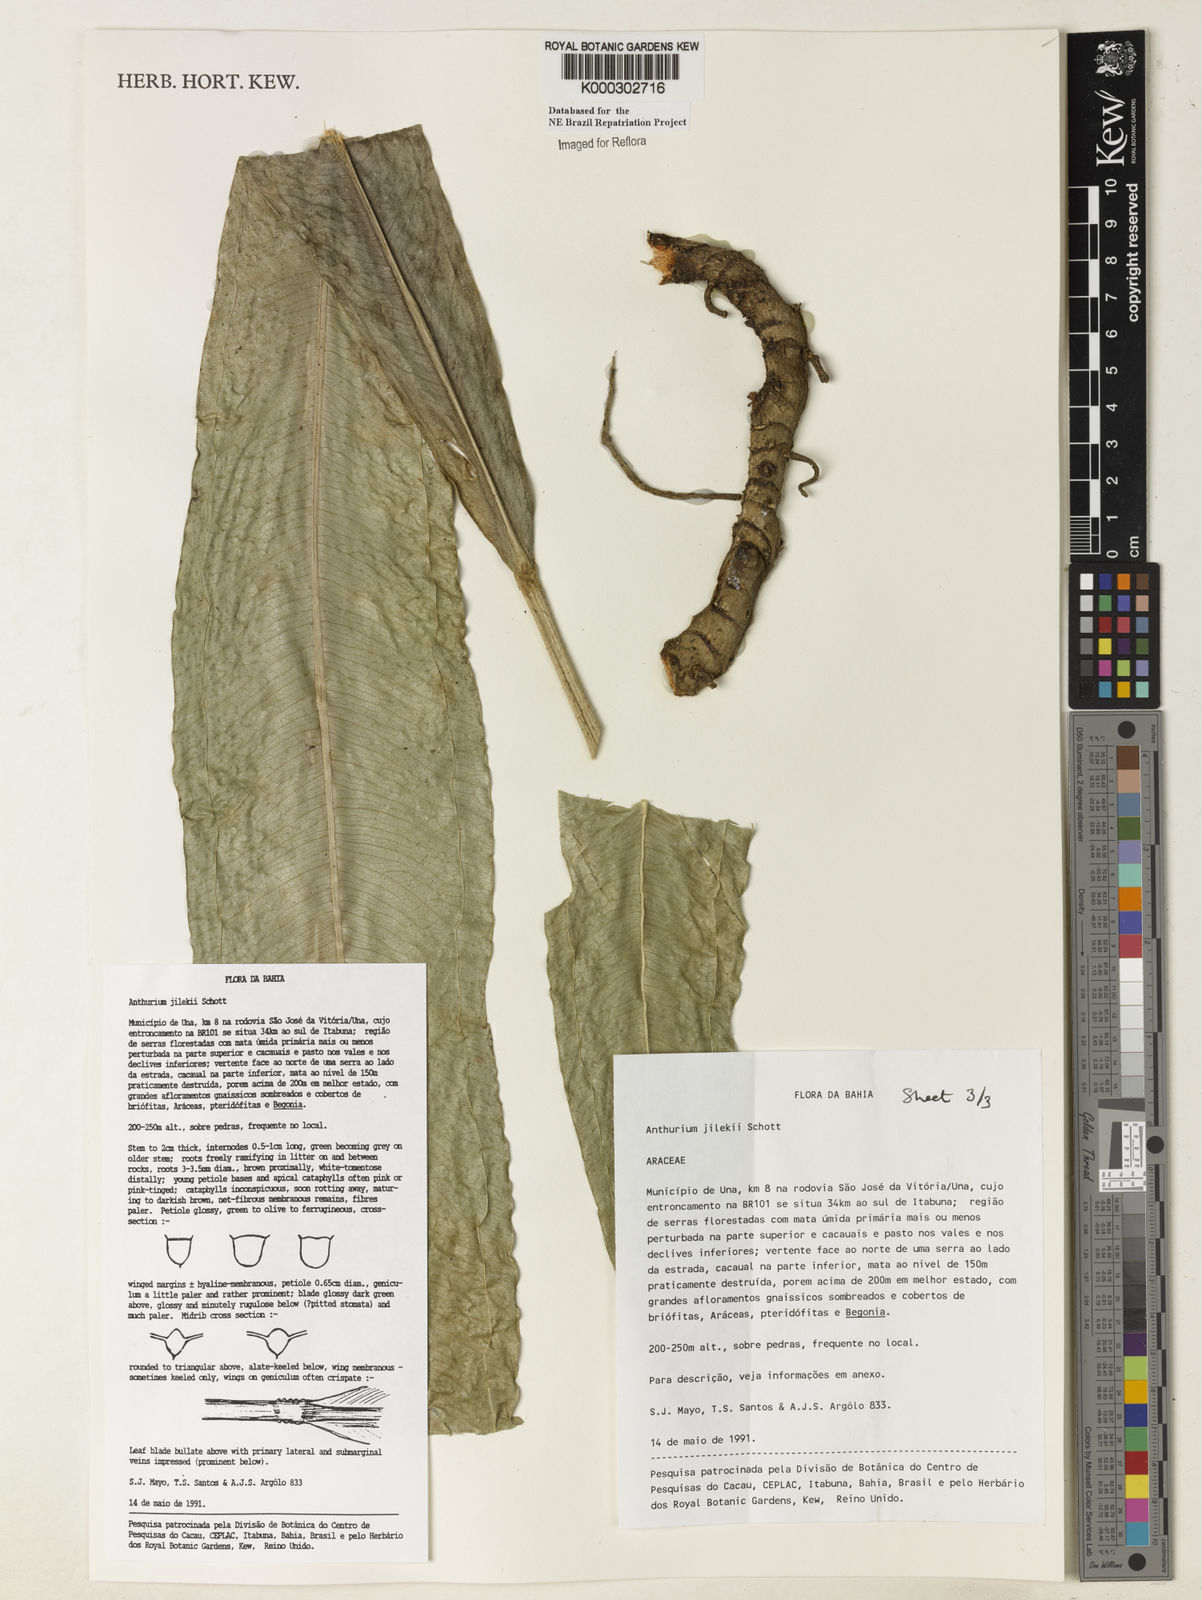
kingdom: Plantae
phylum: Tracheophyta
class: Liliopsida
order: Alismatales
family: Araceae
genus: Anthurium
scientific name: Anthurium jilekii
